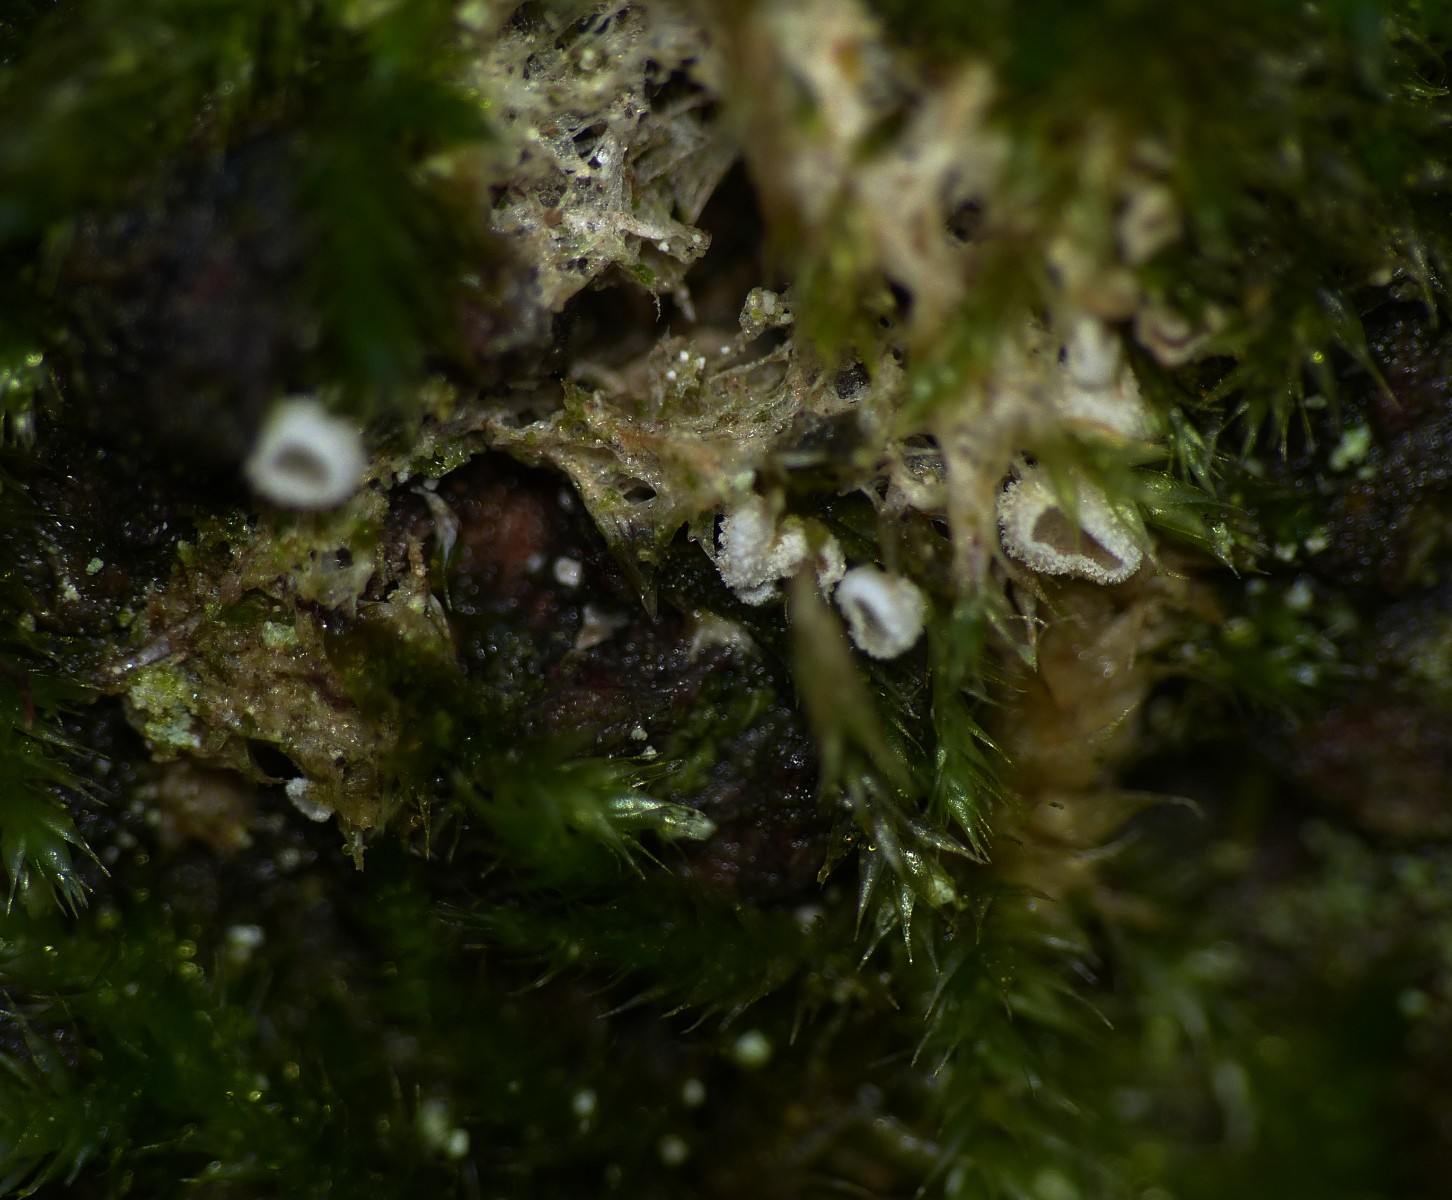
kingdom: Fungi
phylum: Basidiomycota
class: Agaricomycetes
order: Agaricales
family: Chromocyphellaceae
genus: Chromocyphella
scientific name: Chromocyphella muscicola
